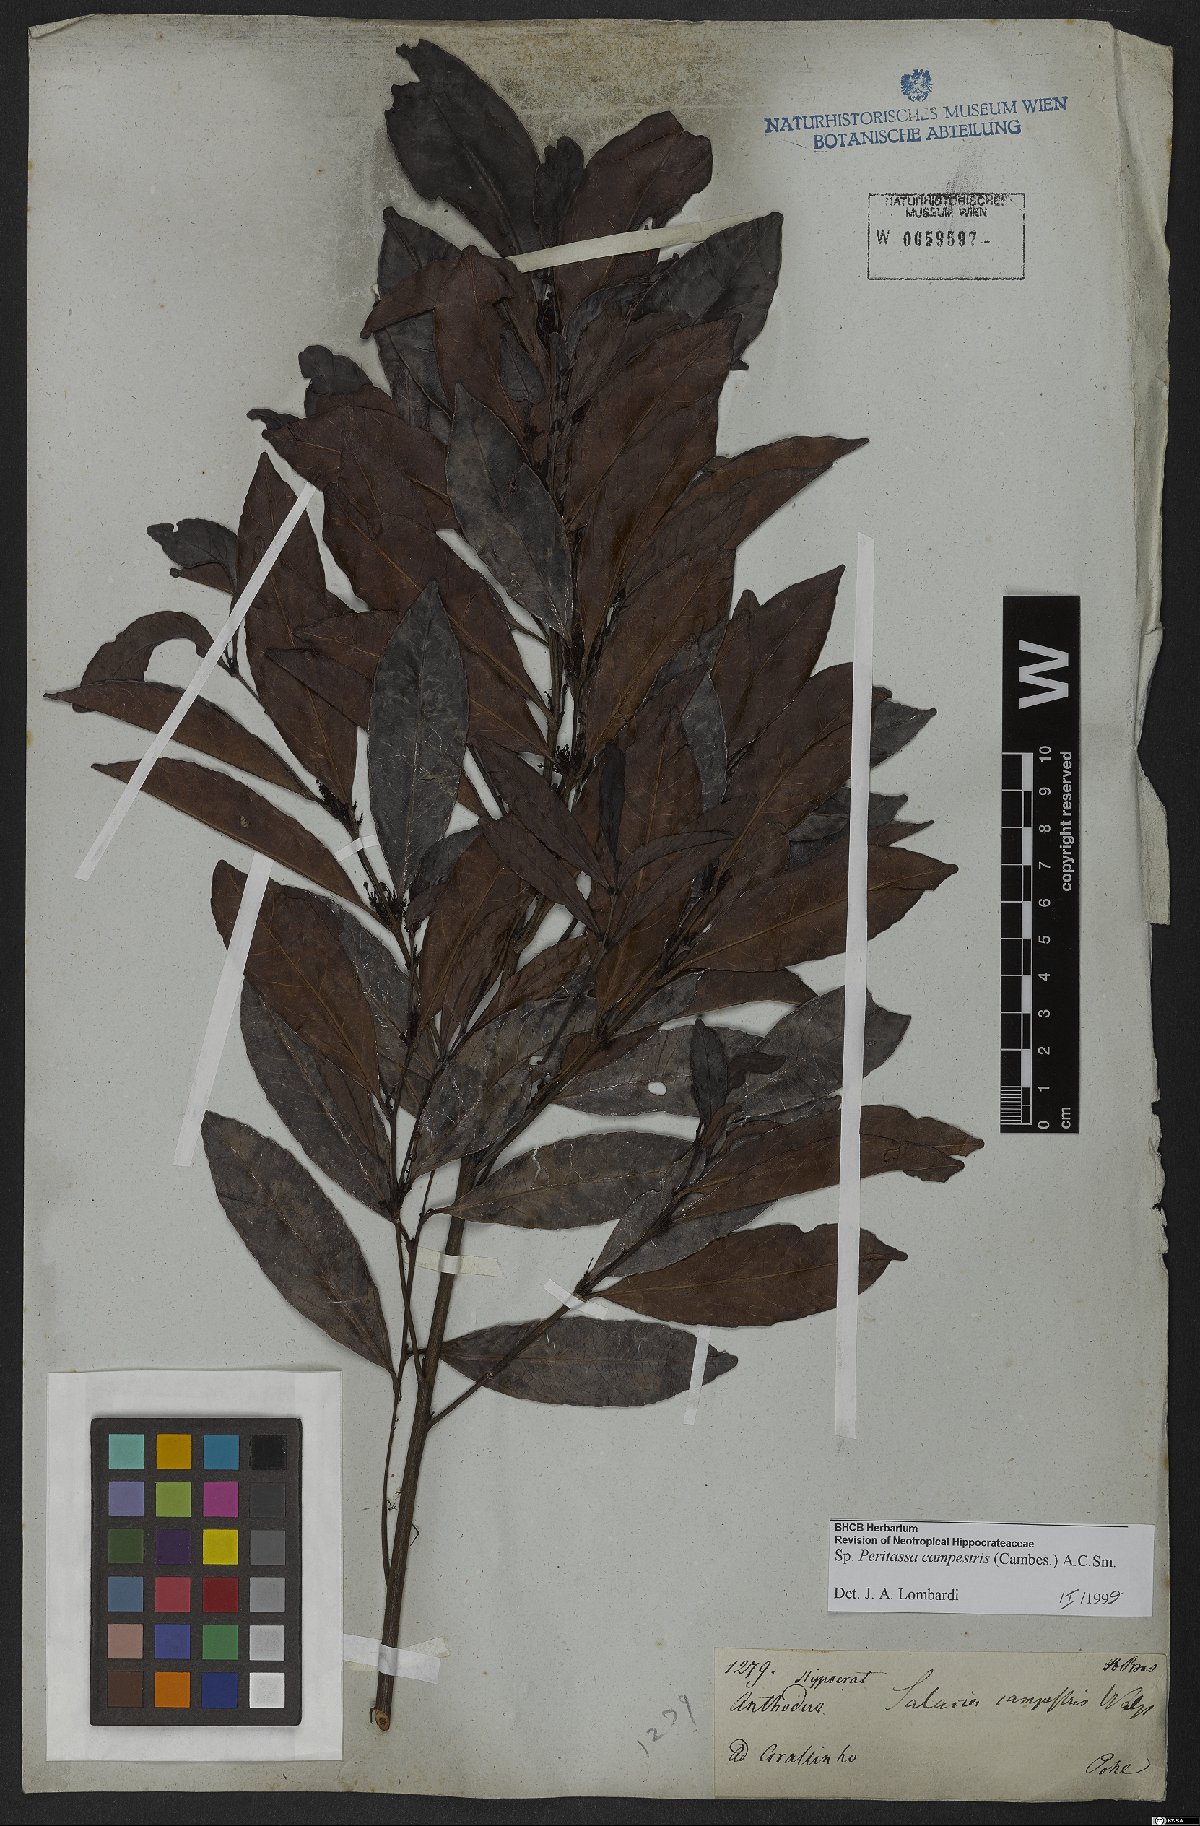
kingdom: Plantae
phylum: Tracheophyta
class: Magnoliopsida
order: Celastrales
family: Celastraceae
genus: Peritassa
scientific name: Peritassa campestris
